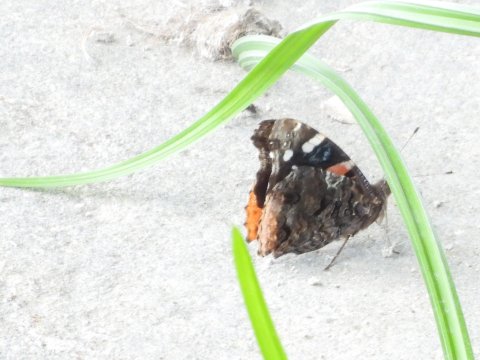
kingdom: Animalia
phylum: Arthropoda
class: Insecta
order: Lepidoptera
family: Nymphalidae
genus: Vanessa
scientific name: Vanessa atalanta
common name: Red Admiral
